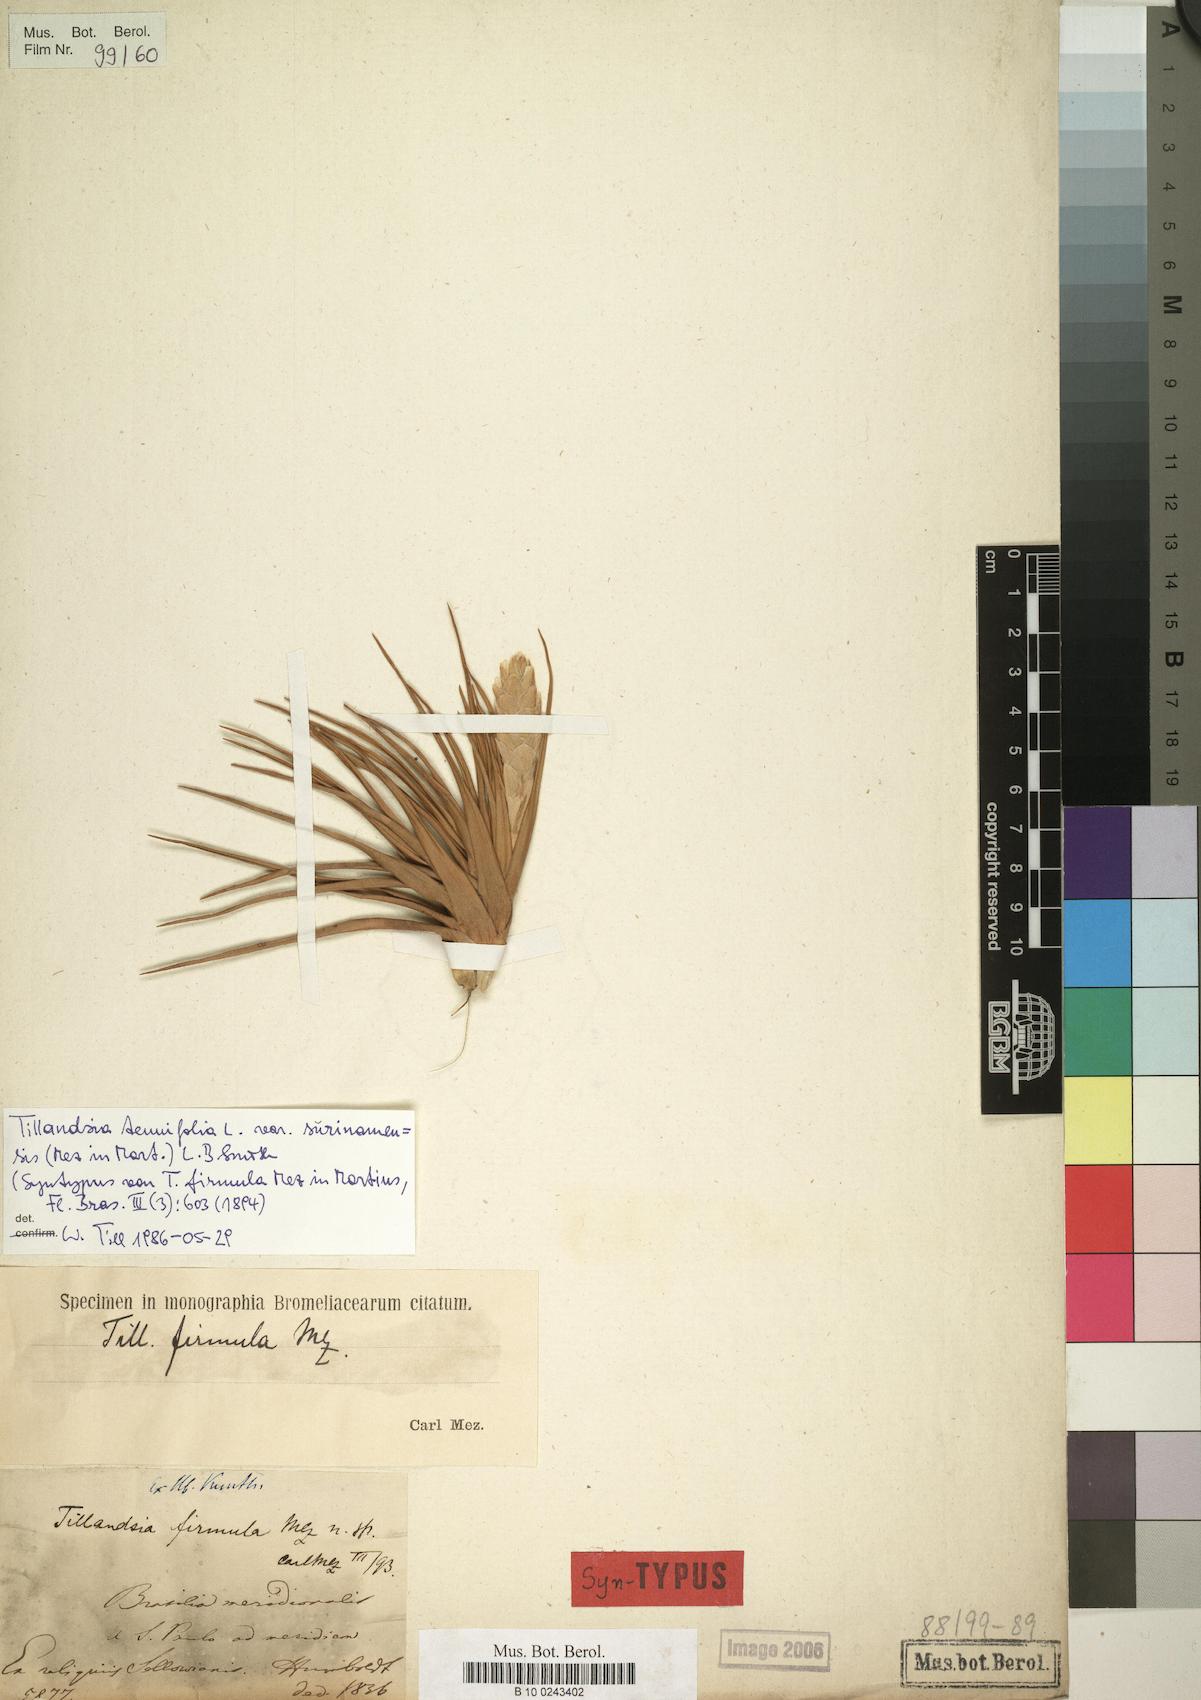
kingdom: Plantae
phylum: Tracheophyta
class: Liliopsida
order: Poales
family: Bromeliaceae
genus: Tillandsia
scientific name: Tillandsia tenuifolia
